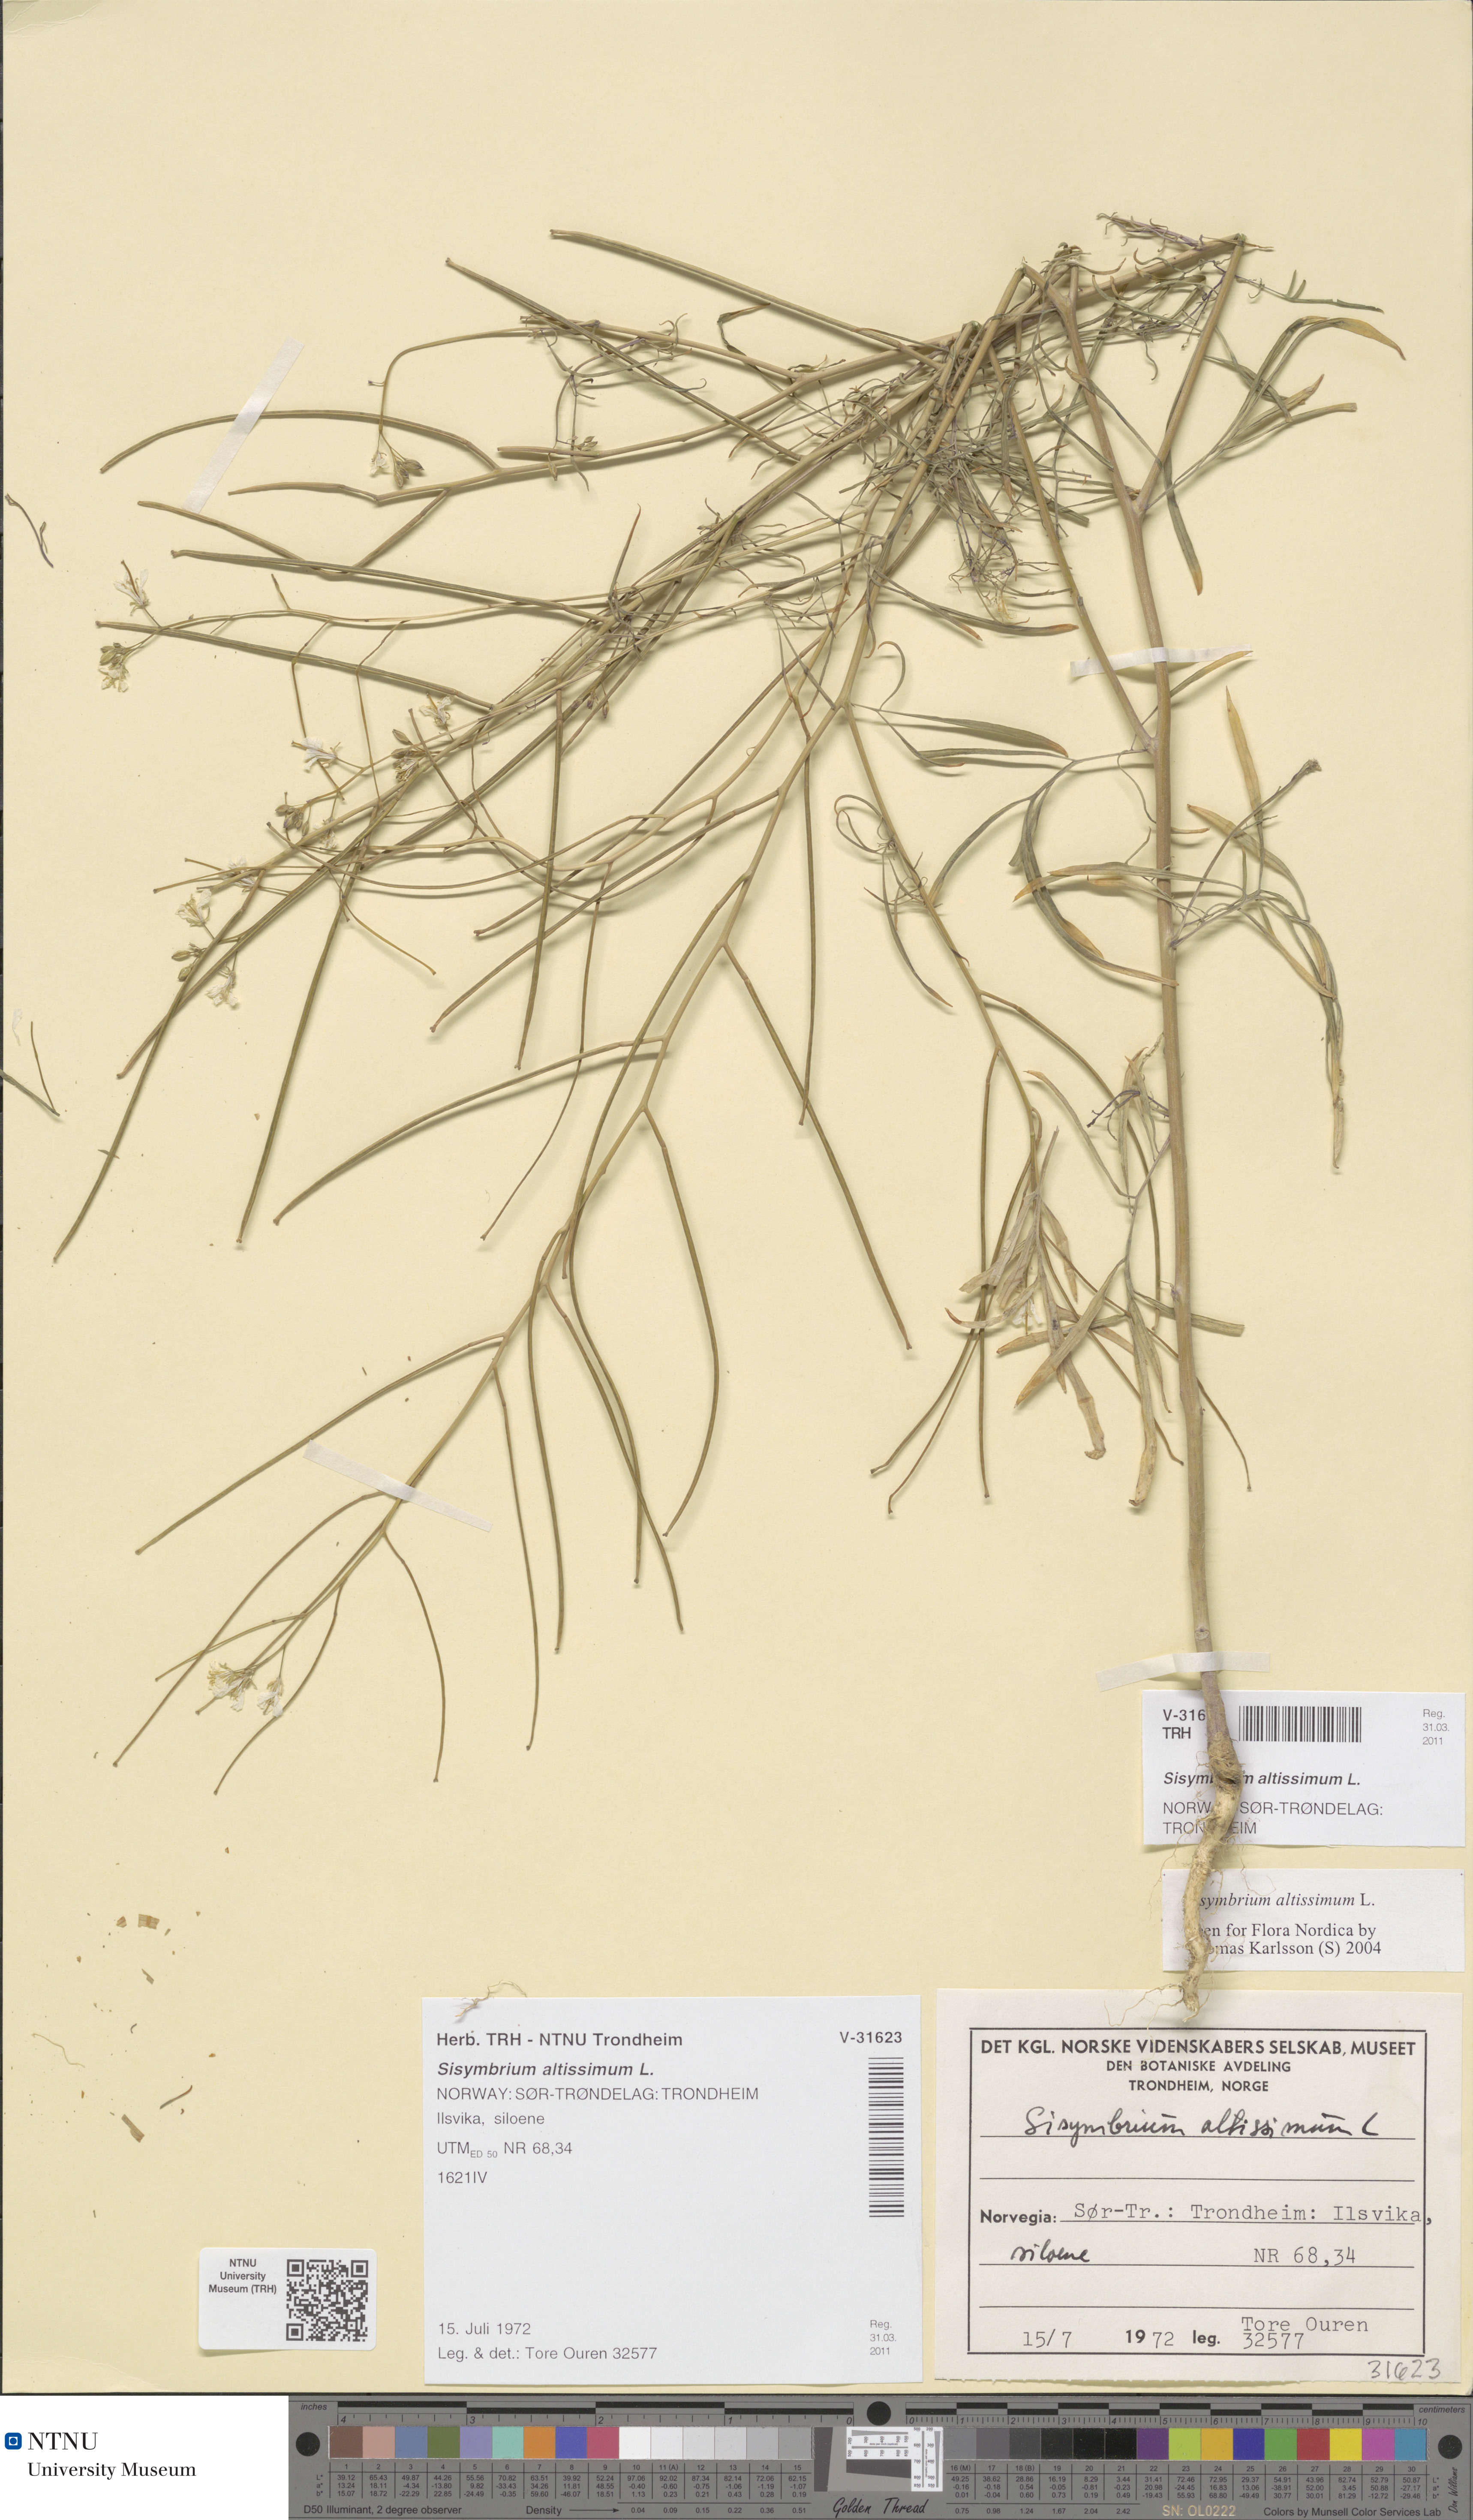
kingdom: Plantae
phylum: Tracheophyta
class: Magnoliopsida
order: Brassicales
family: Brassicaceae
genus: Sisymbrium
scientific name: Sisymbrium altissimum
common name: Tall rocket
